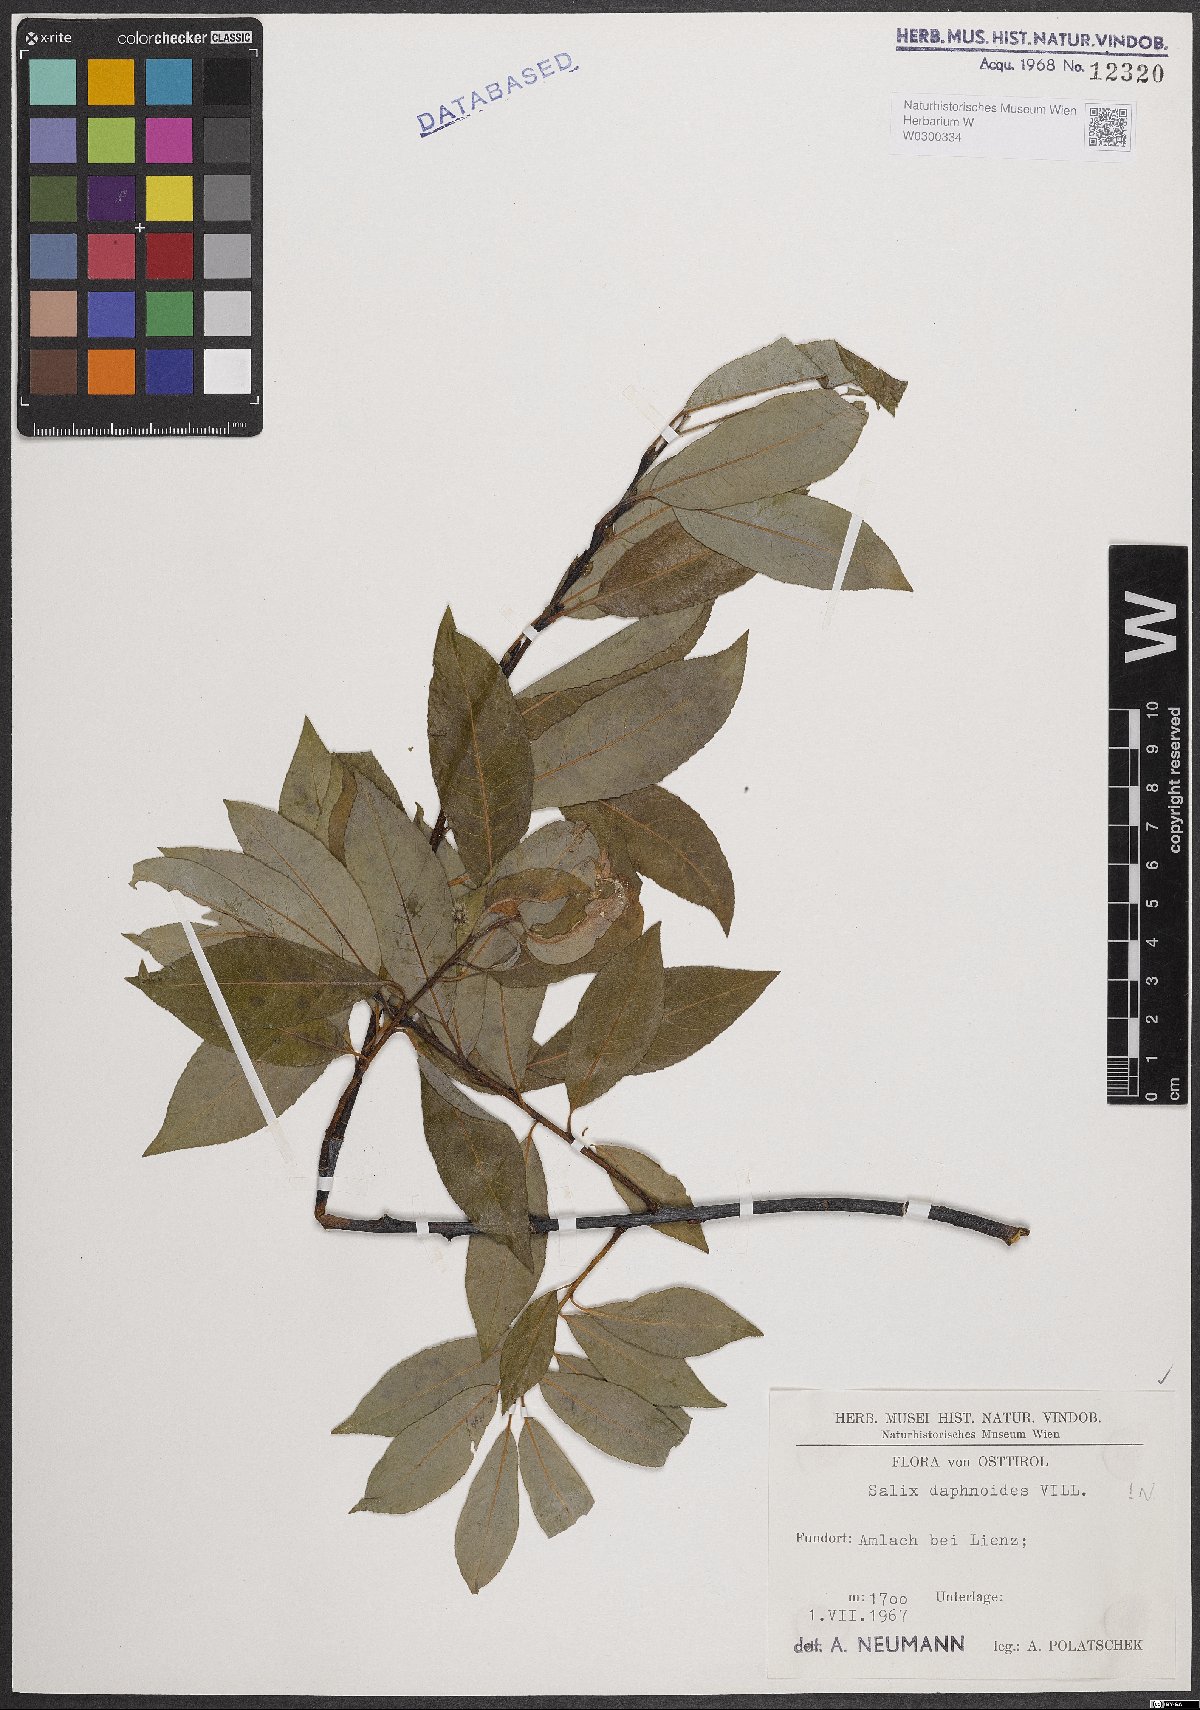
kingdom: Plantae
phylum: Tracheophyta
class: Magnoliopsida
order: Malpighiales
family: Salicaceae
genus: Salix
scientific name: Salix daphnoides
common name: European violet-willow
